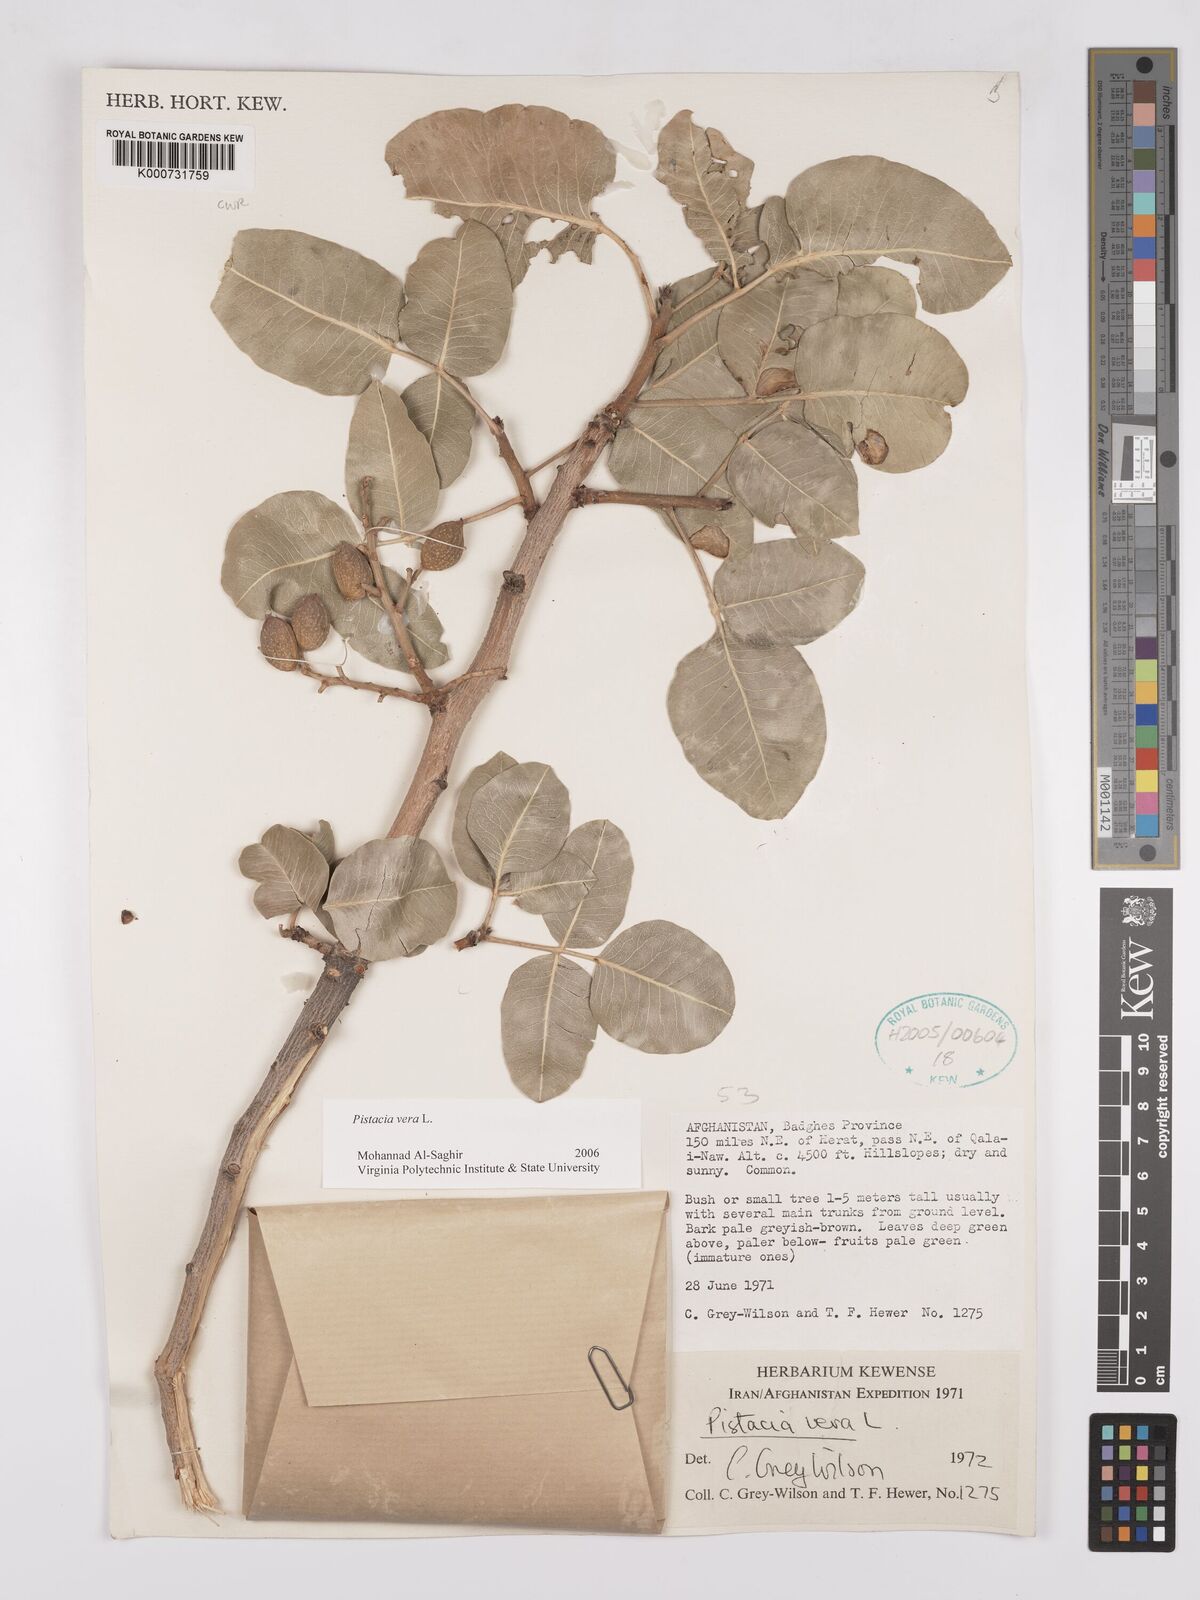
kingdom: Plantae
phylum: Tracheophyta
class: Magnoliopsida
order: Sapindales
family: Anacardiaceae
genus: Pistacia
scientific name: Pistacia vera
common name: Pistachio
